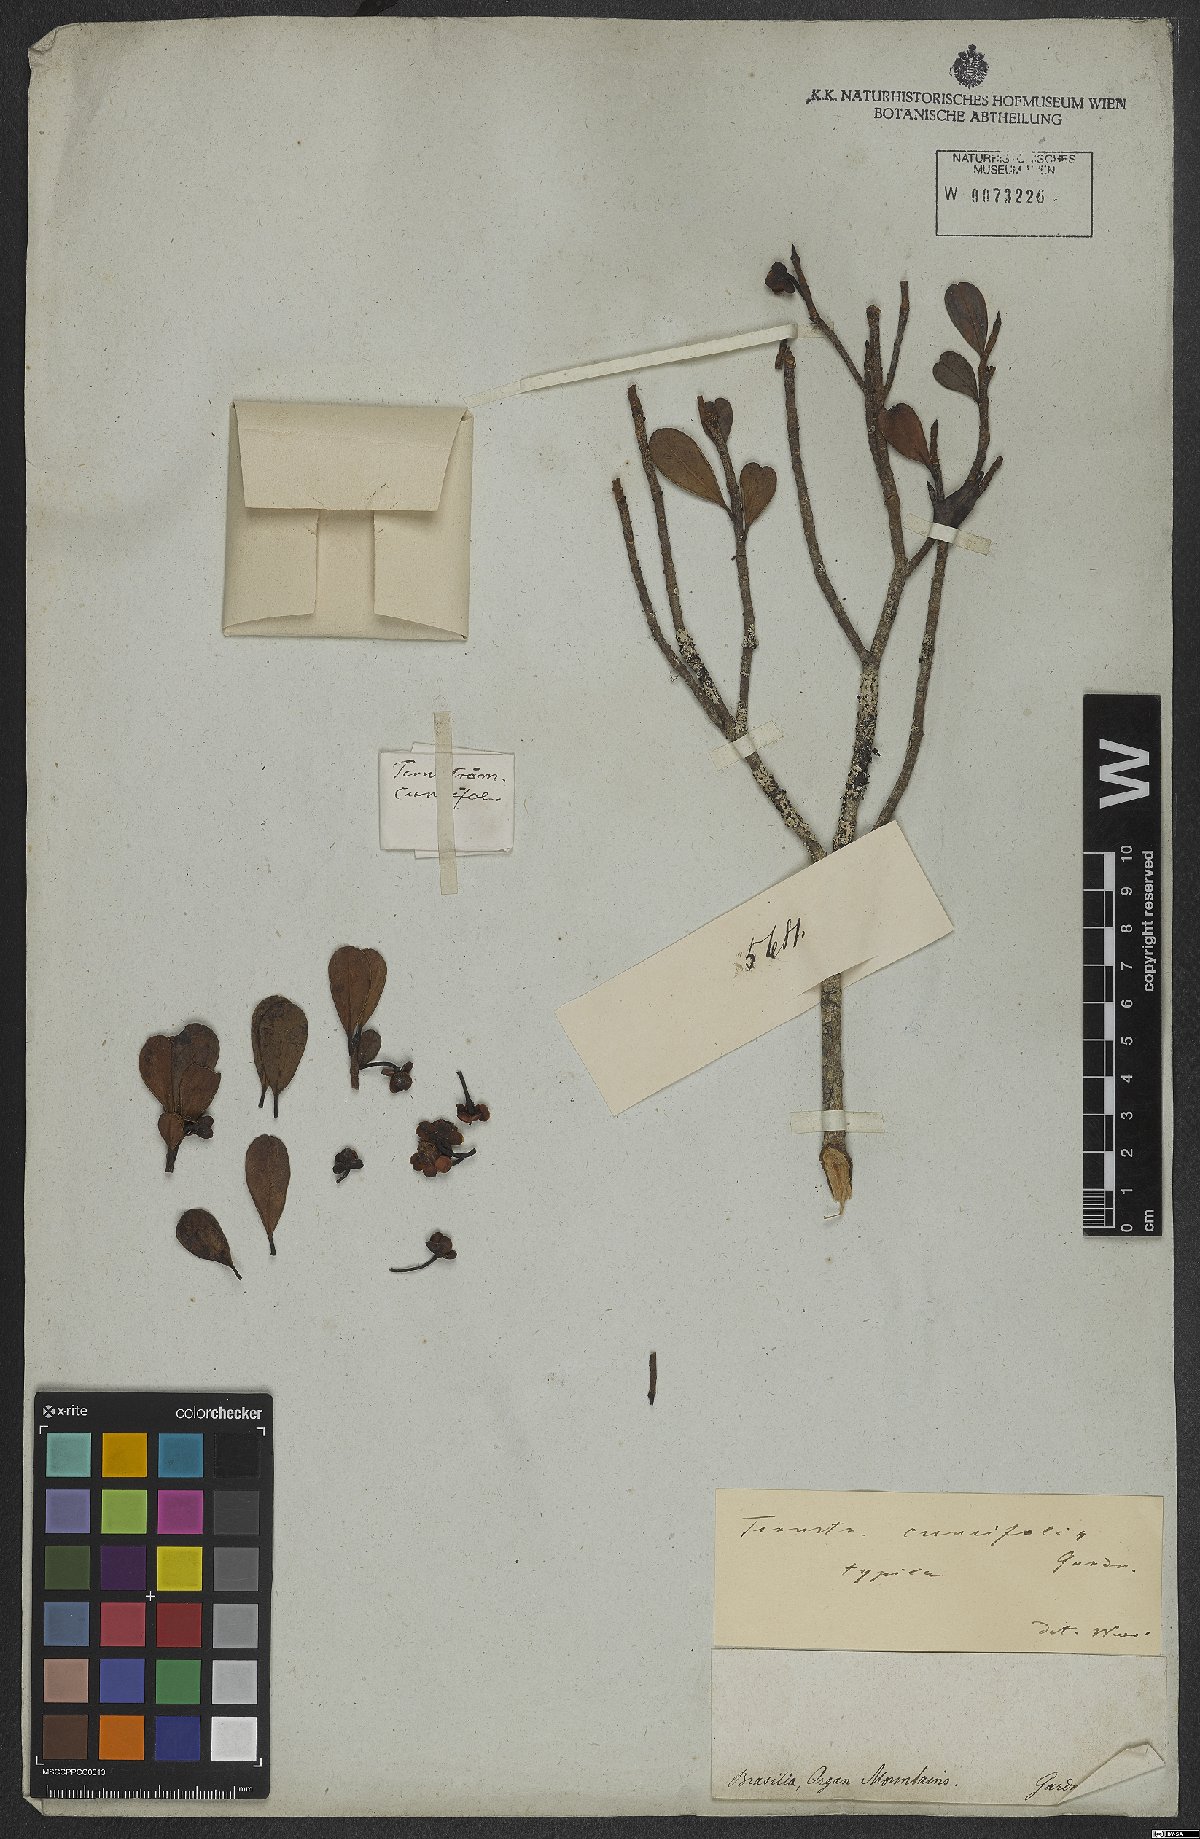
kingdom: Plantae
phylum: Tracheophyta
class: Magnoliopsida
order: Ericales
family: Pentaphylacaceae
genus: Ternstroemia
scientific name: Ternstroemia cuneifolia
